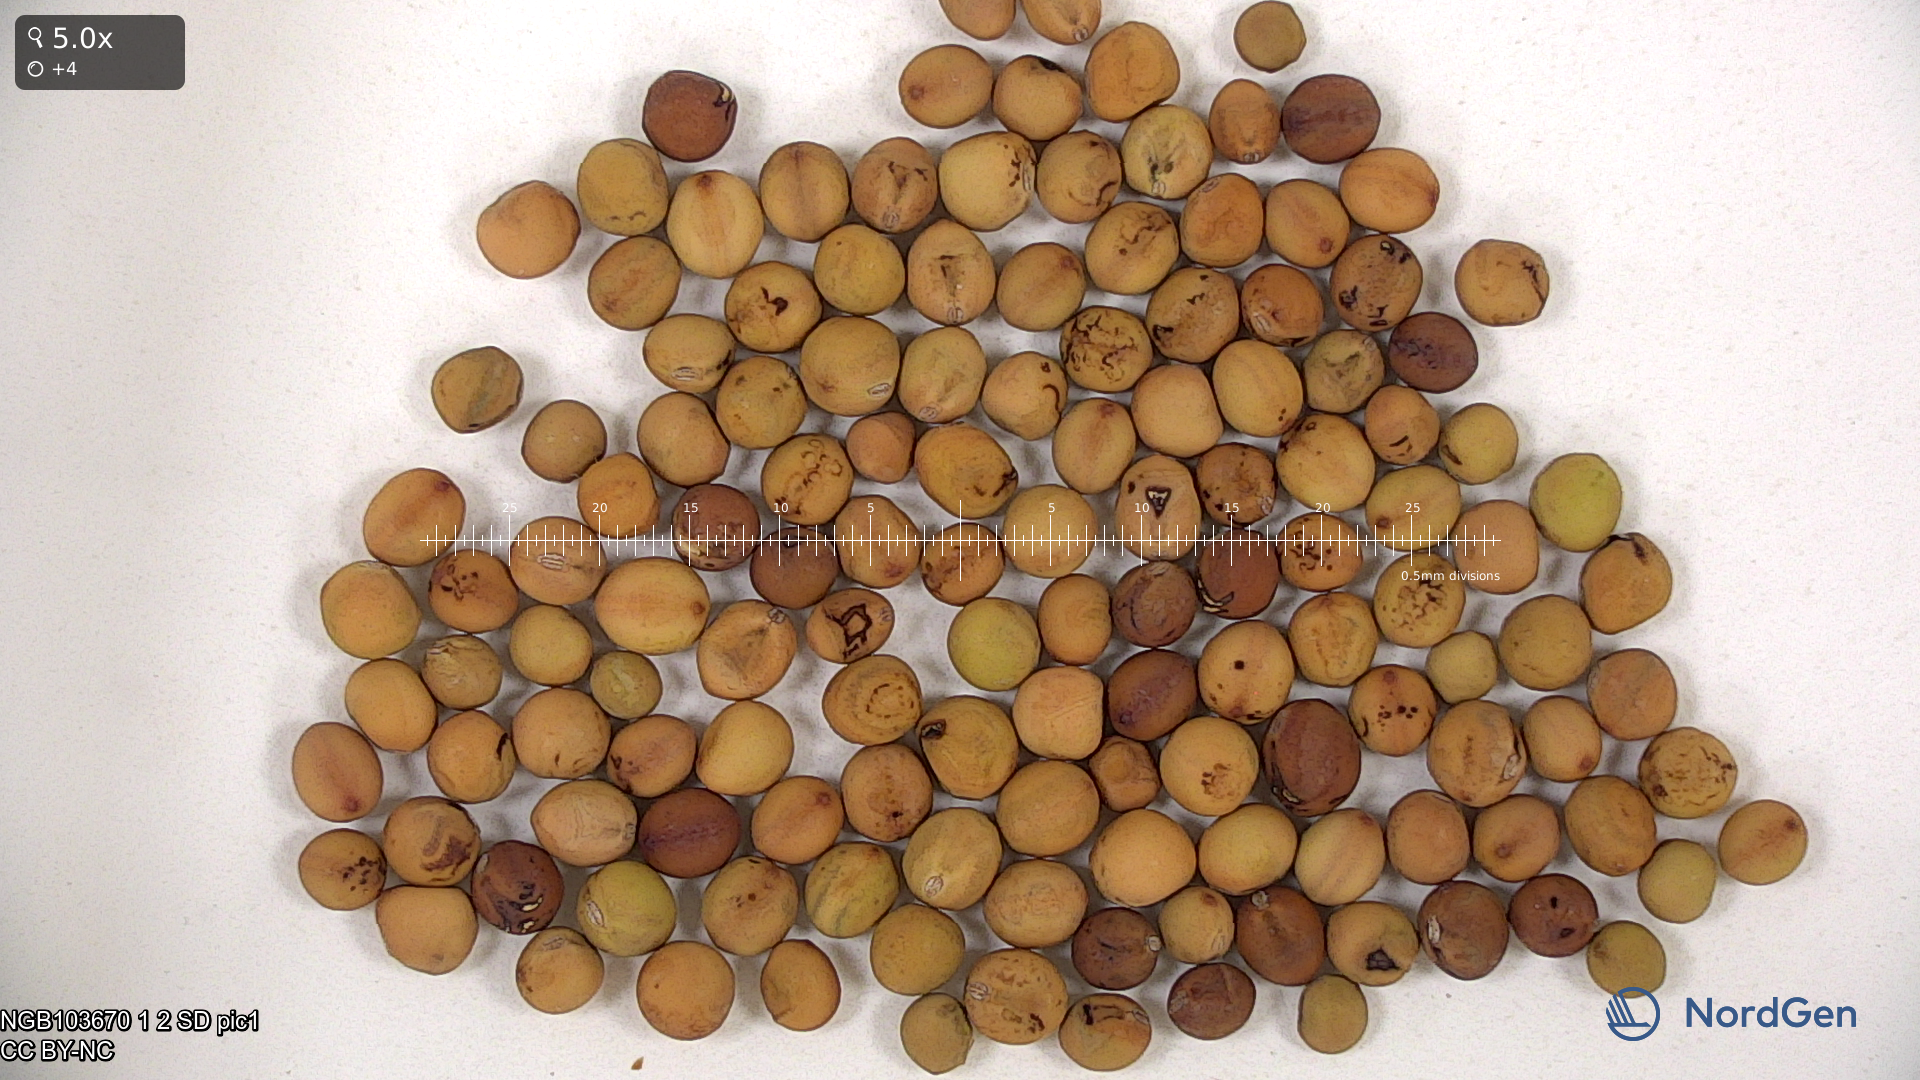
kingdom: Plantae
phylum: Tracheophyta
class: Magnoliopsida
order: Fabales
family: Fabaceae
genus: Lathyrus
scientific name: Lathyrus oleraceus
